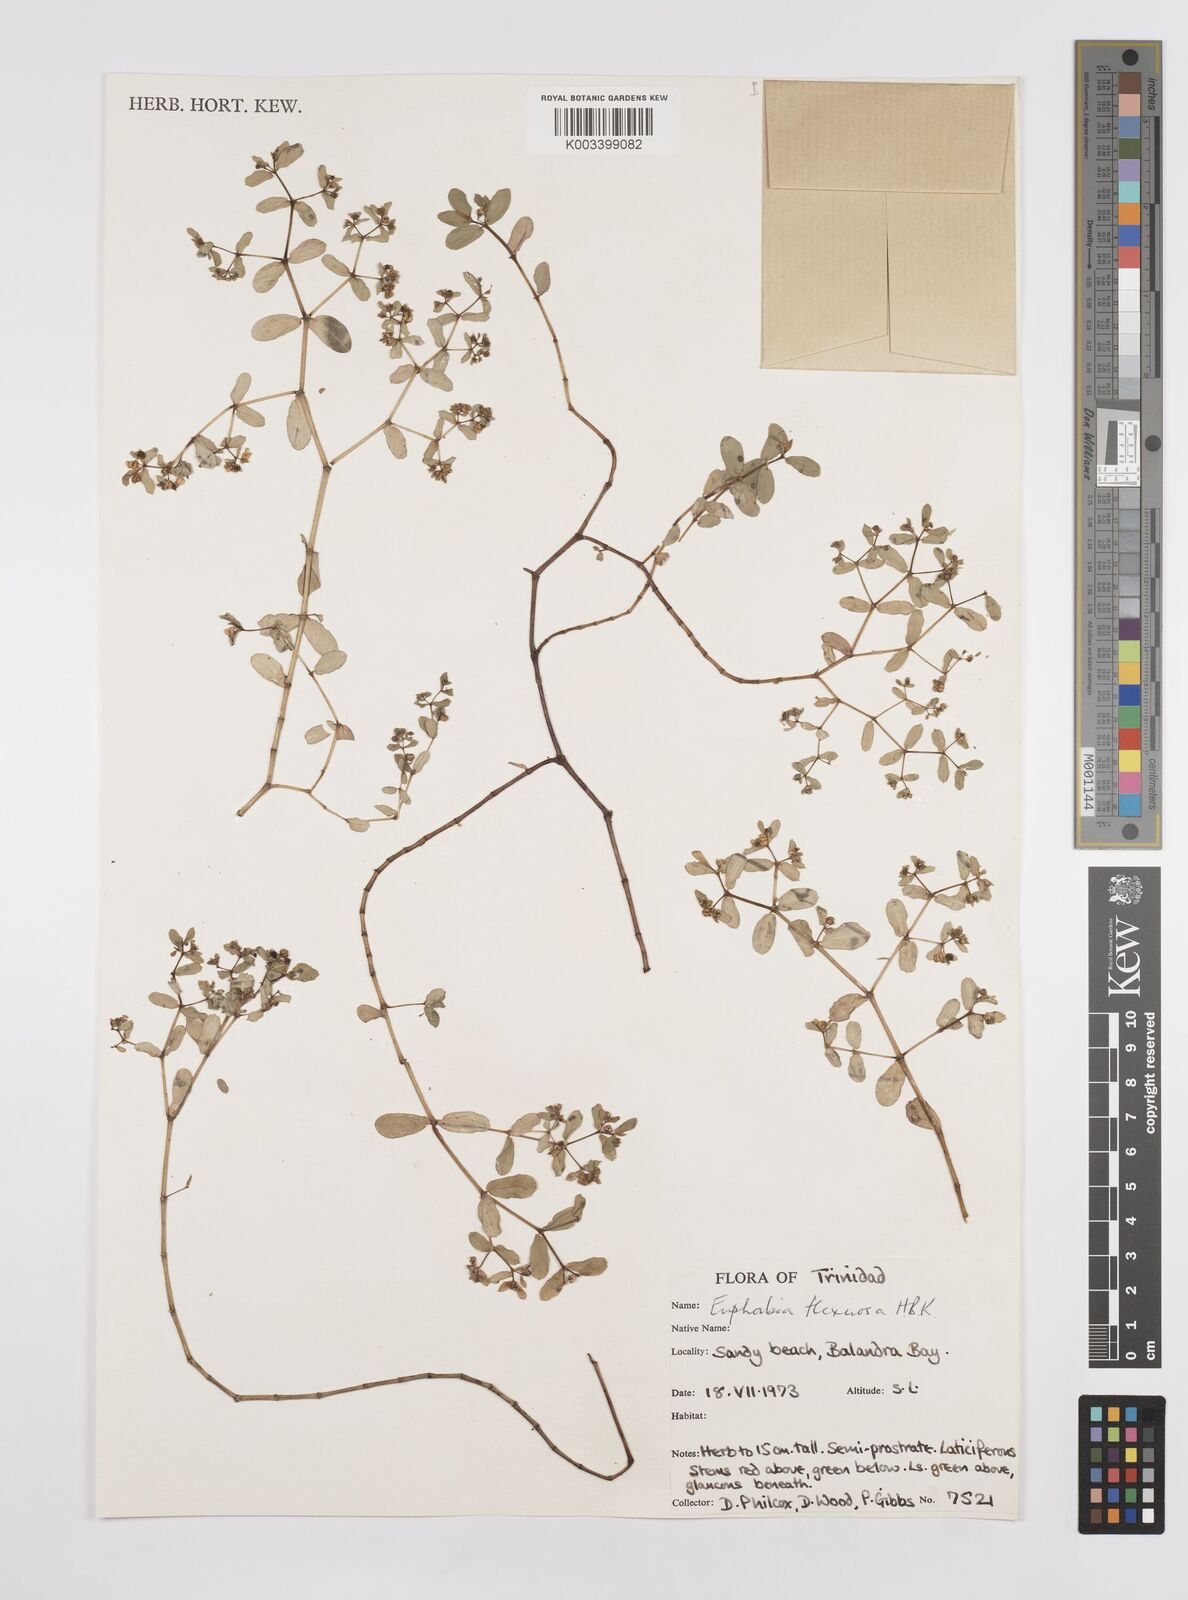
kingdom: Plantae
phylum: Tracheophyta
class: Magnoliopsida
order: Malpighiales
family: Euphorbiaceae
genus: Euphorbia
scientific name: Euphorbia mesembryanthemifolia
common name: Coastal beach sandmat
